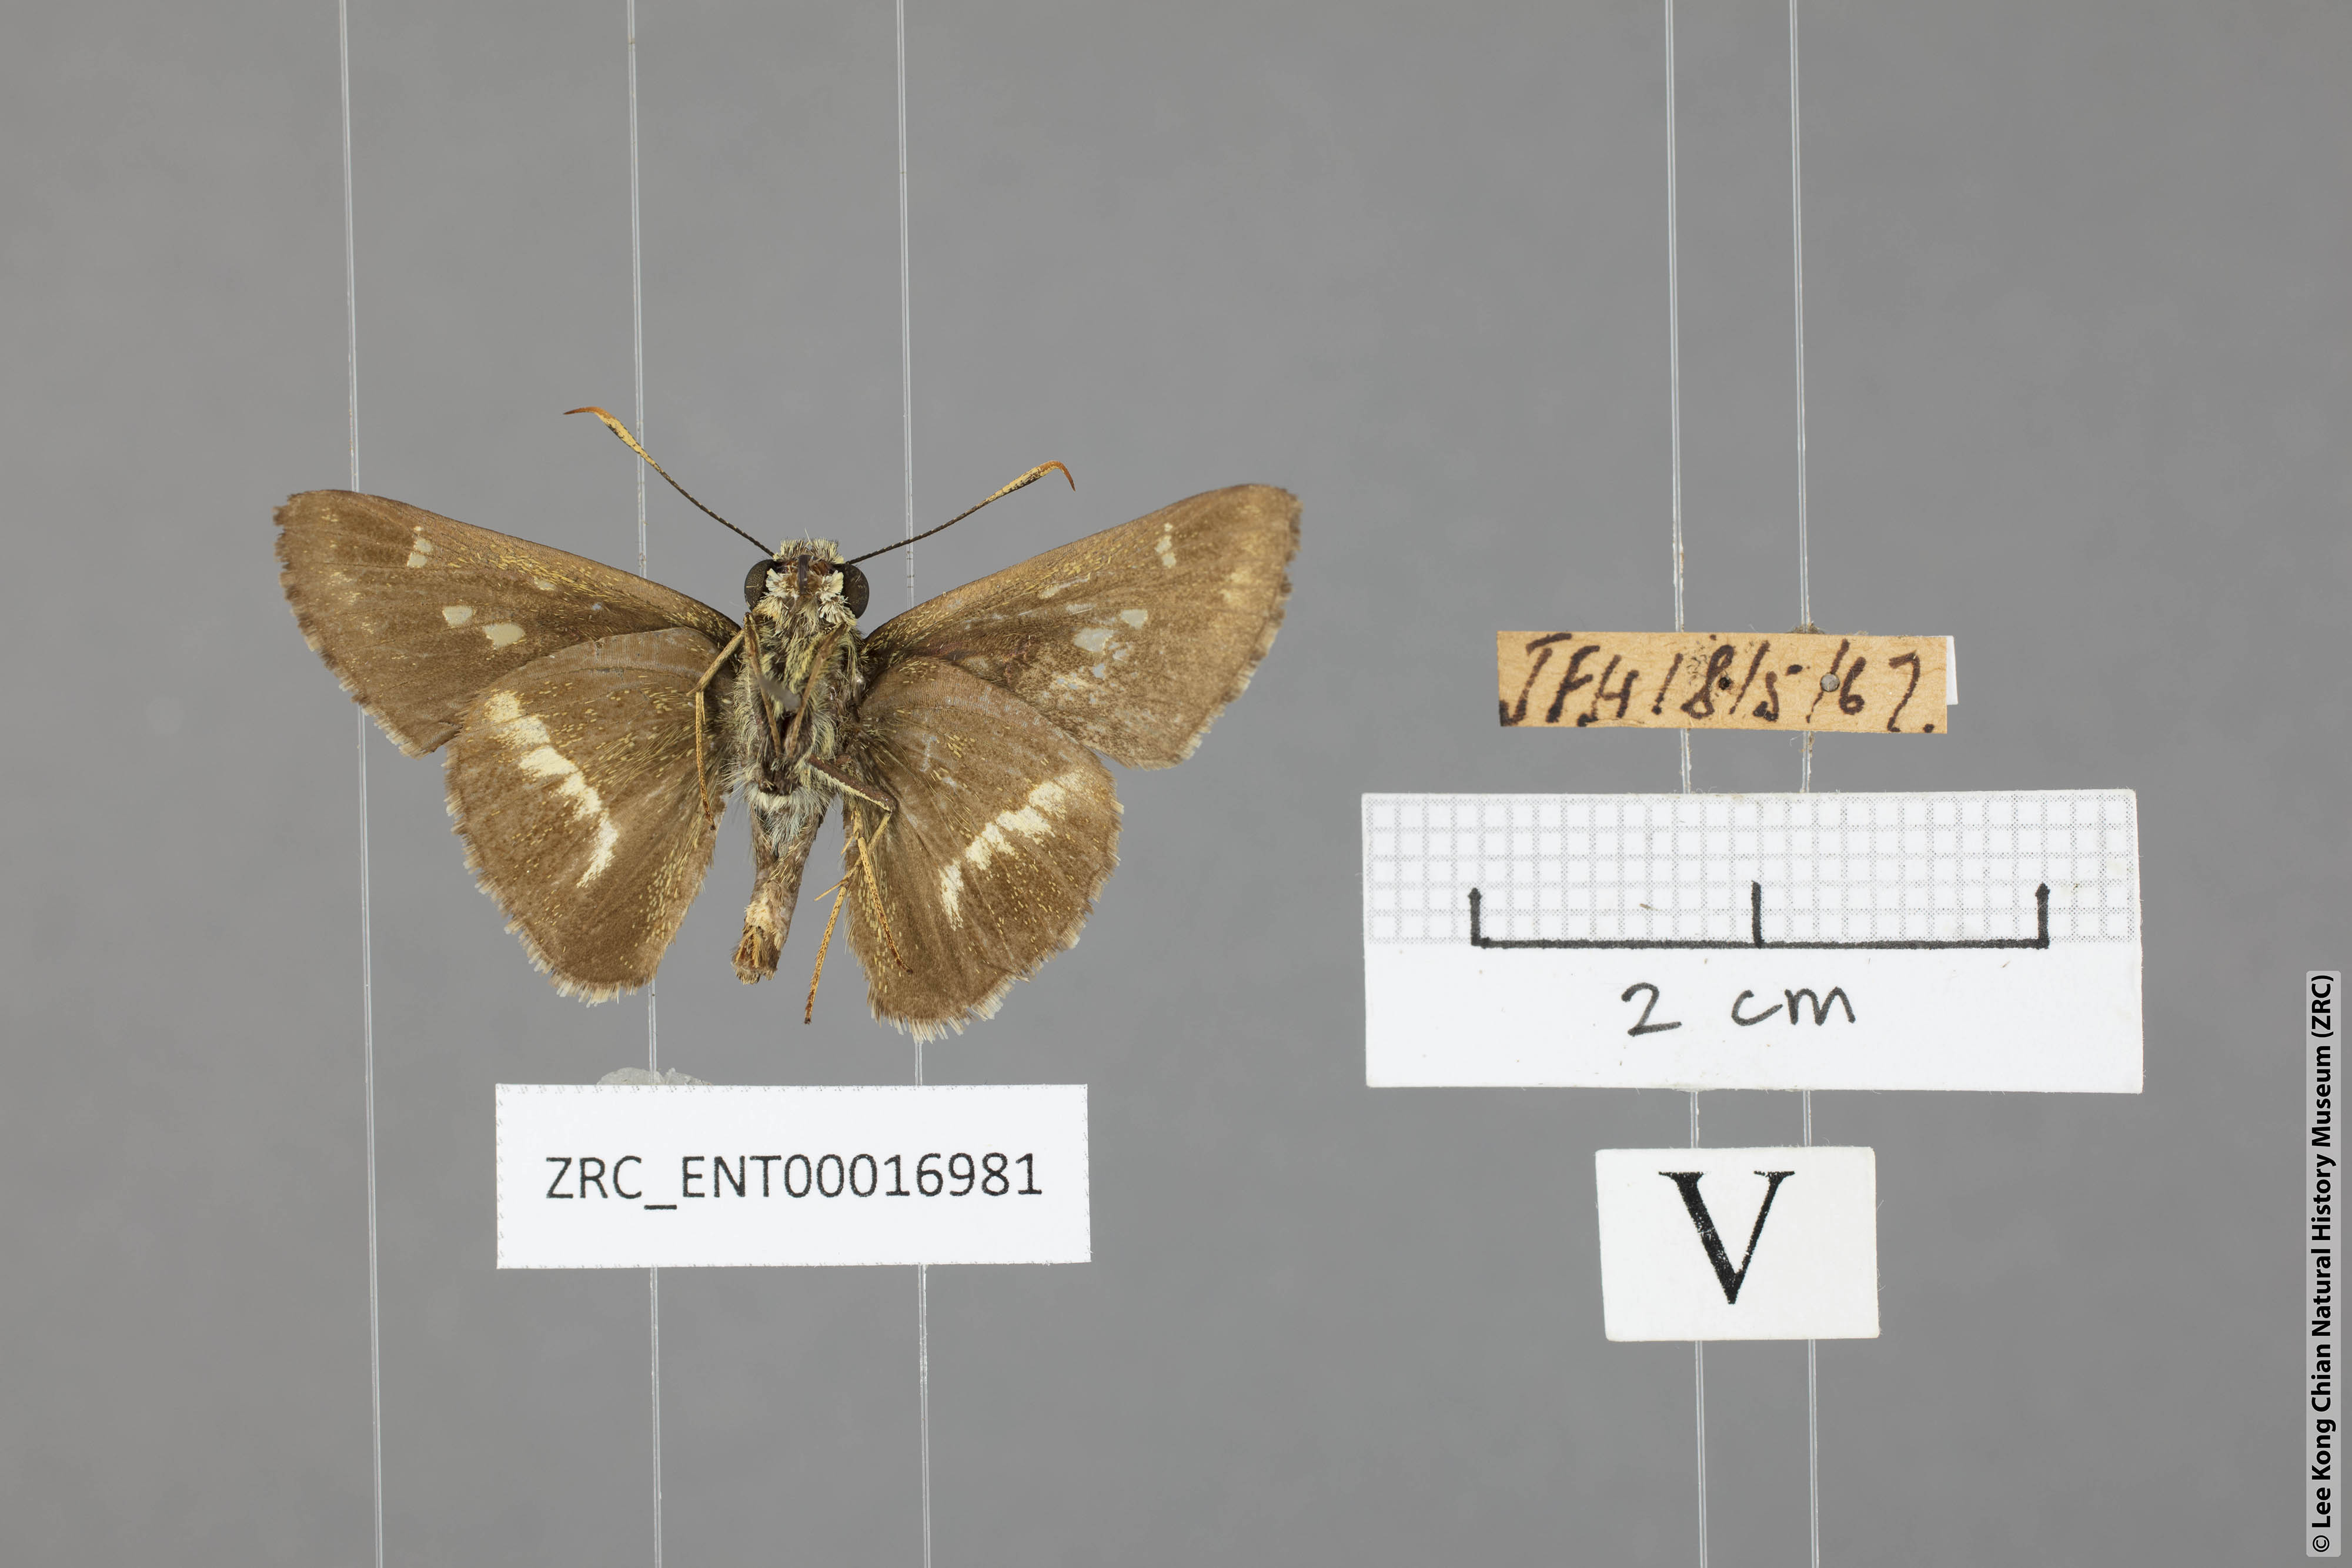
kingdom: Animalia
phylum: Arthropoda
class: Insecta
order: Lepidoptera
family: Hesperiidae
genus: Halpe
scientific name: Halpe elana
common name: Narrow-banded ace
